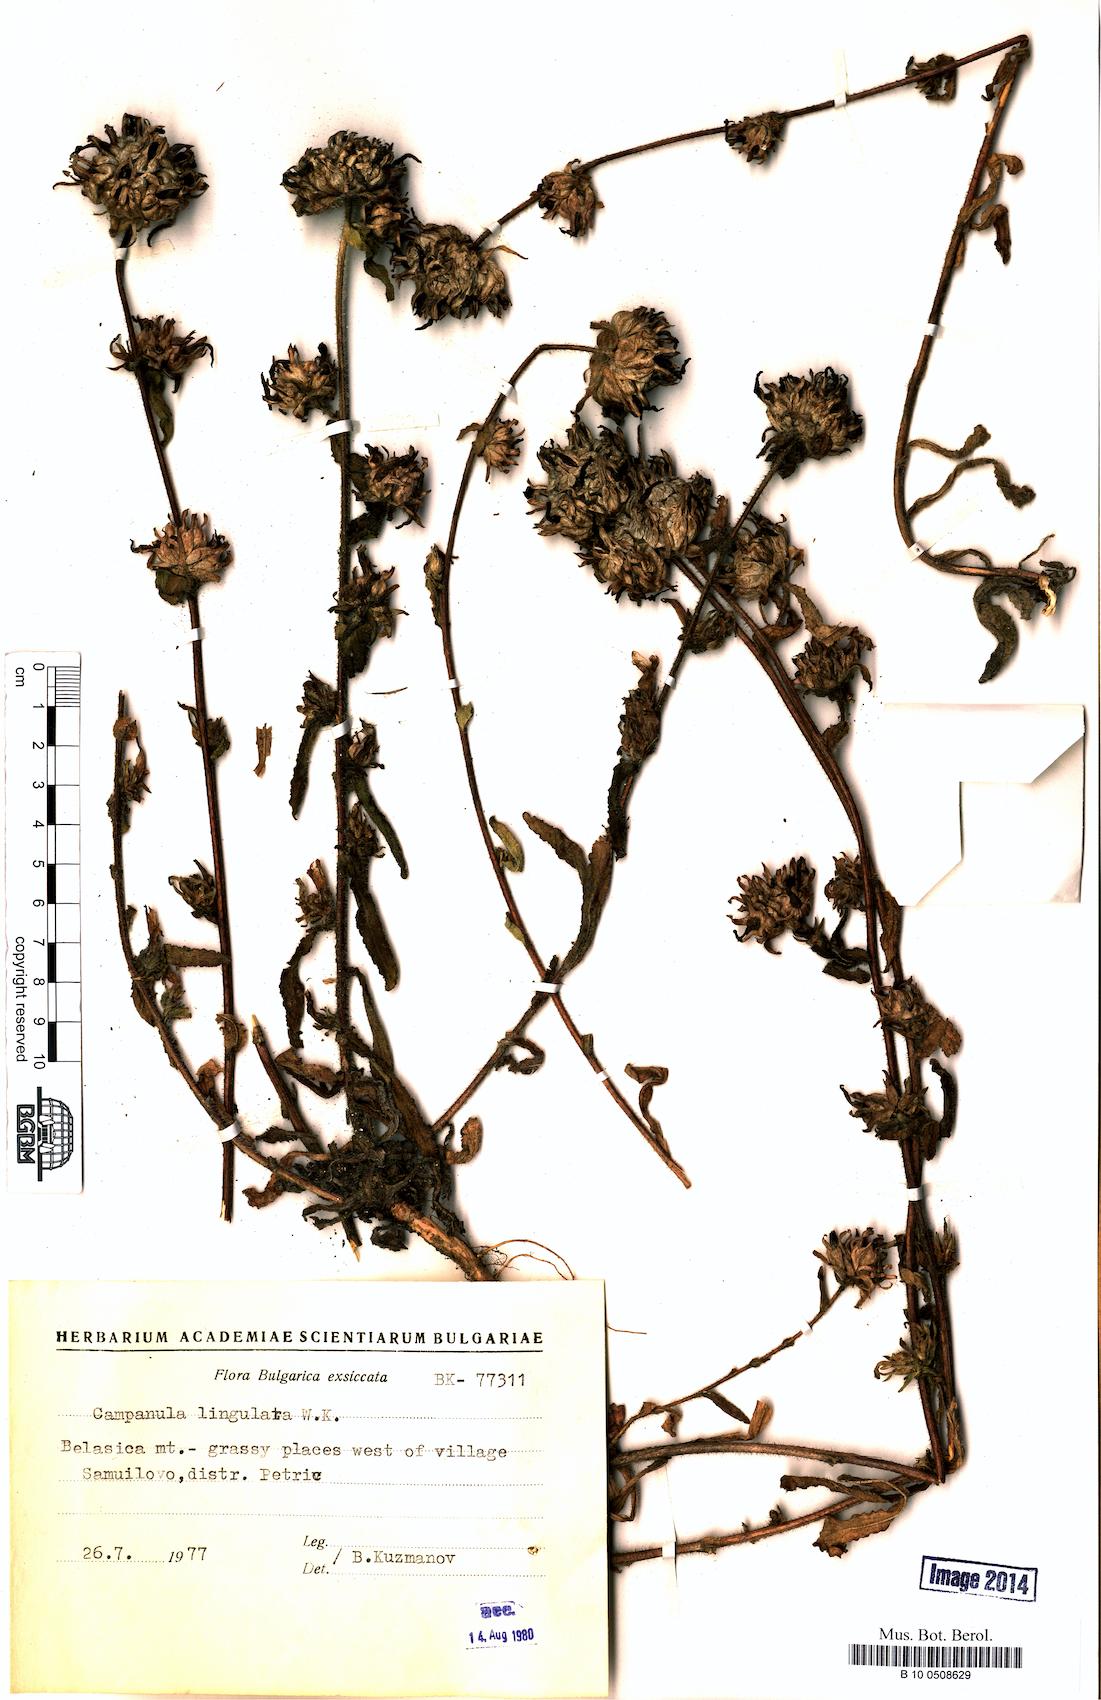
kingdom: Plantae
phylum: Tracheophyta
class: Magnoliopsida
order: Asterales
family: Campanulaceae
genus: Campanula
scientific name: Campanula lingulata
